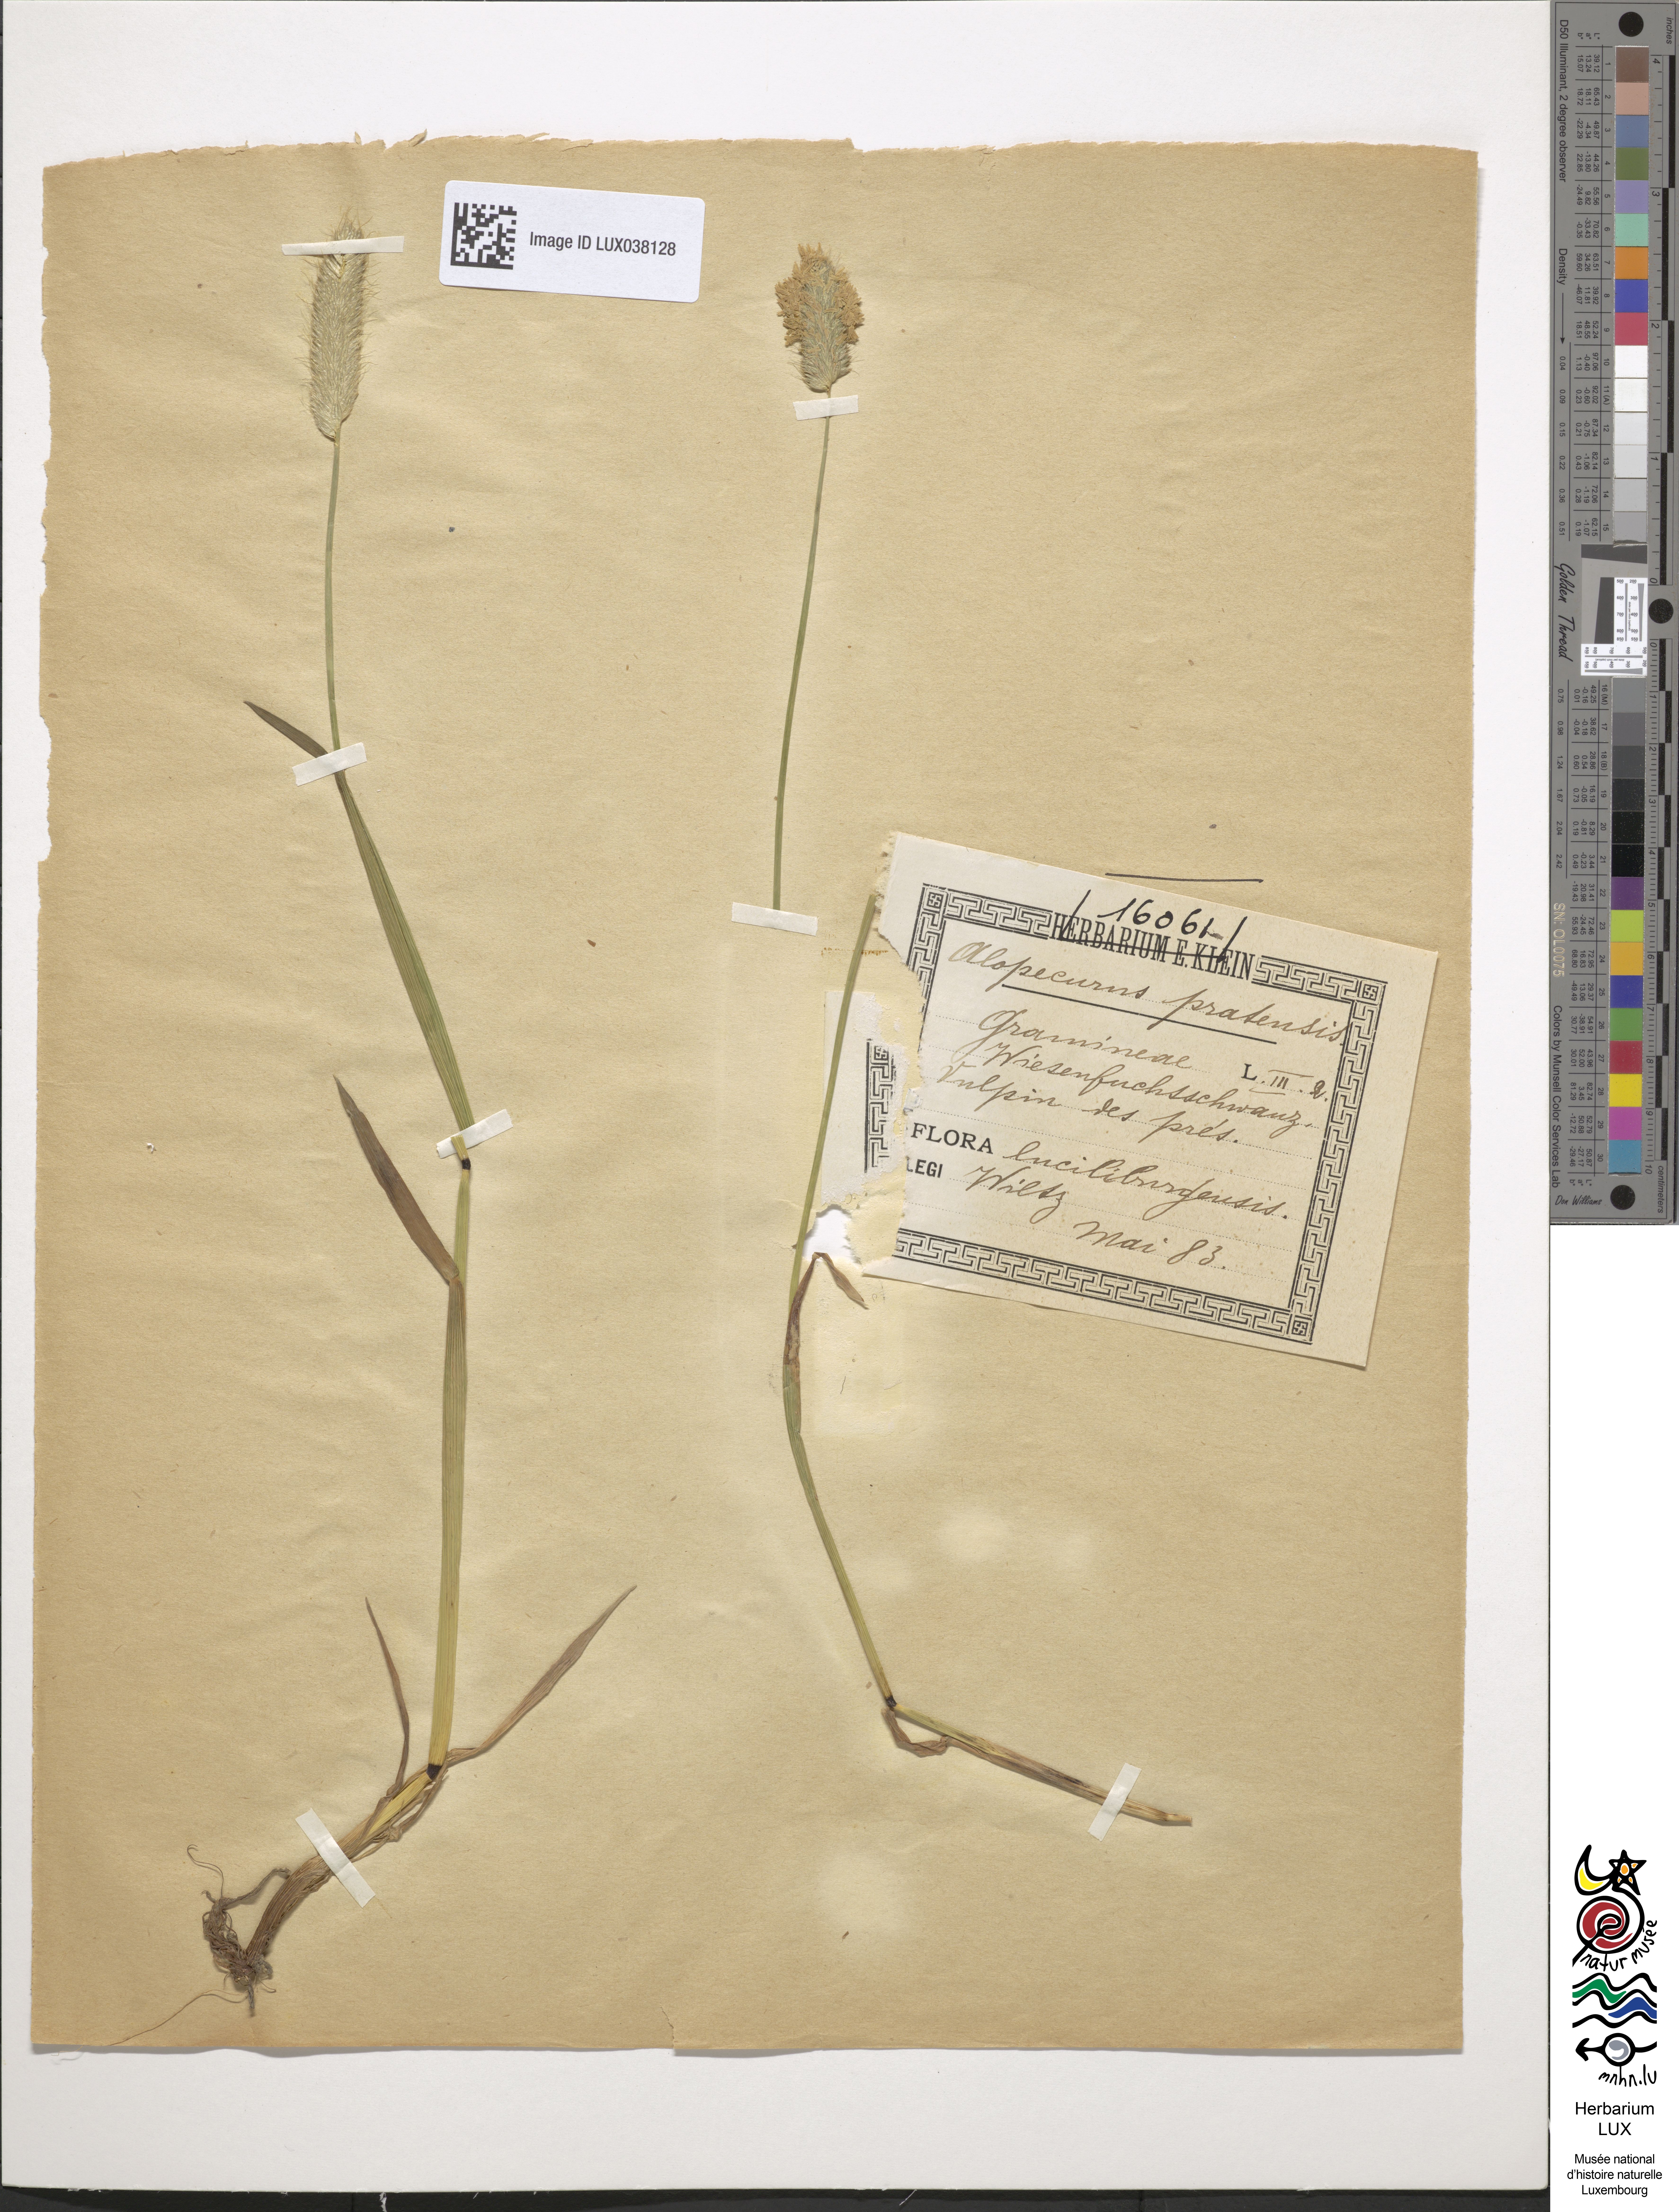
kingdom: Plantae
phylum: Tracheophyta
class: Liliopsida
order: Poales
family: Poaceae
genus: Alopecurus
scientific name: Alopecurus pratensis
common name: Meadow foxtail
